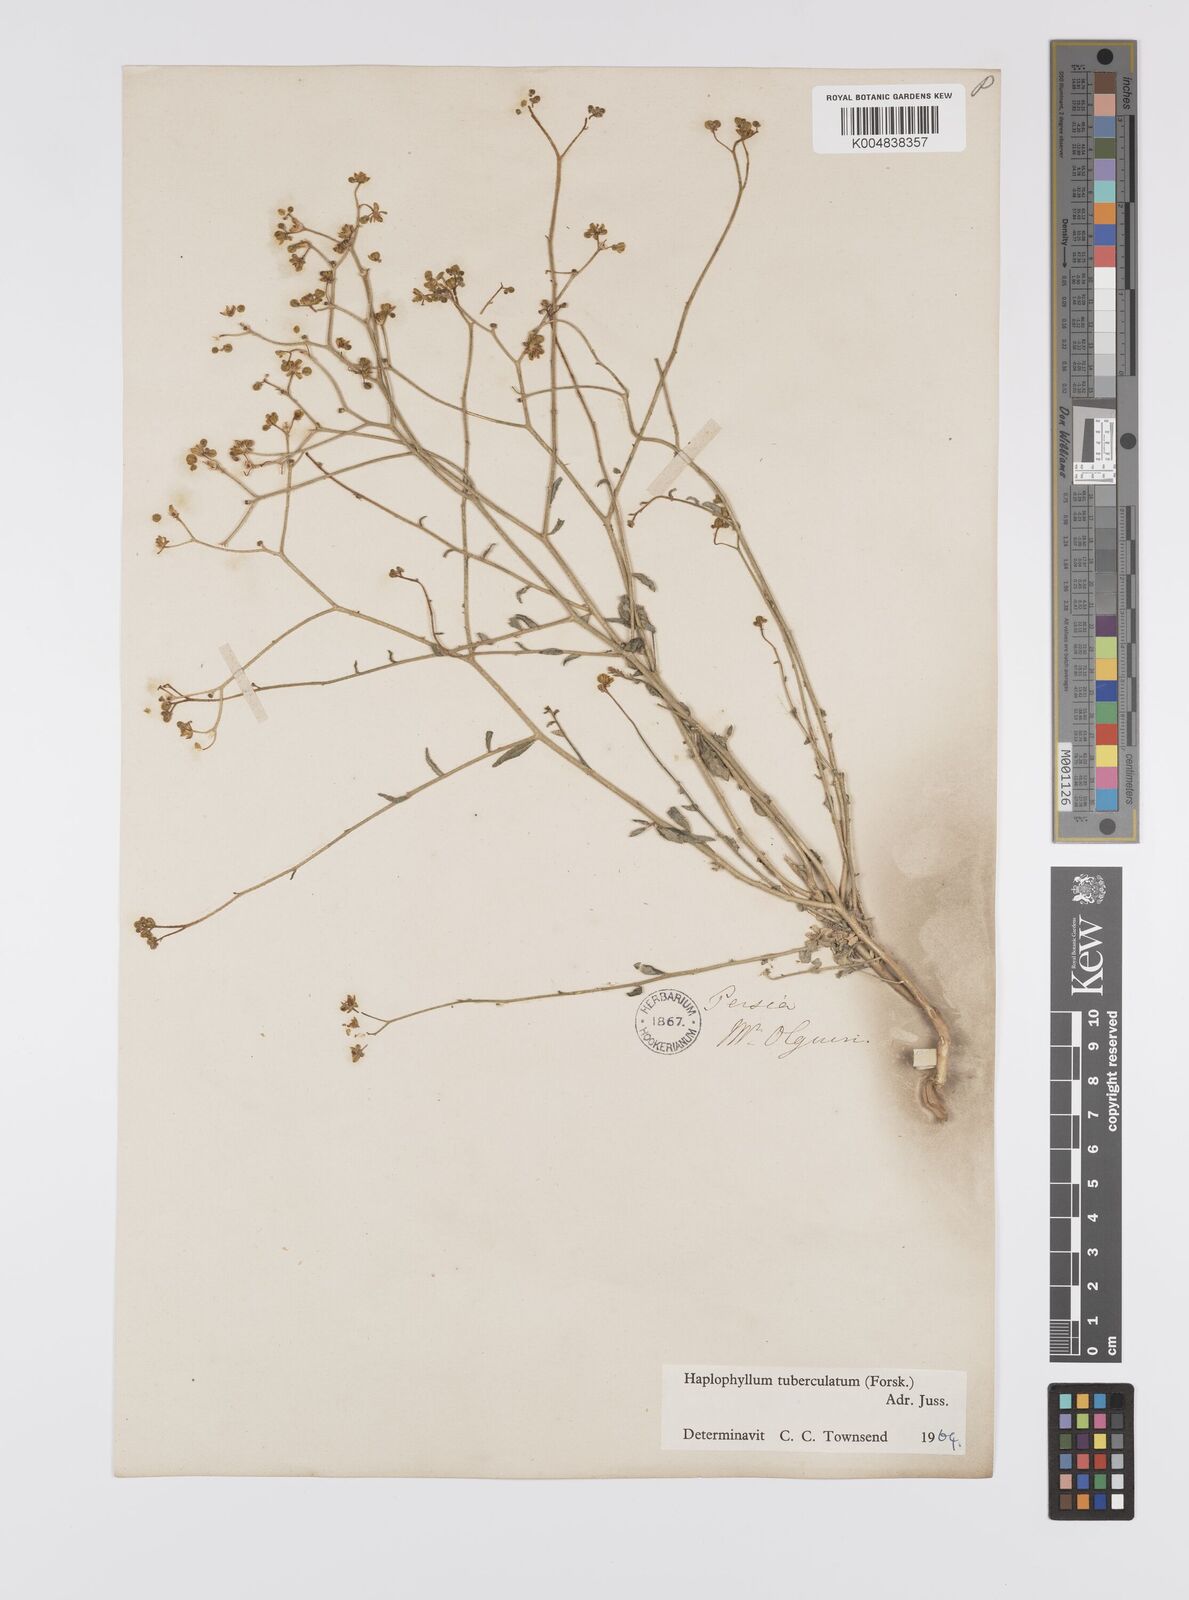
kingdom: Plantae
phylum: Tracheophyta
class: Magnoliopsida
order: Sapindales
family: Rutaceae
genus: Haplophyllum
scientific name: Haplophyllum tuberculatum
